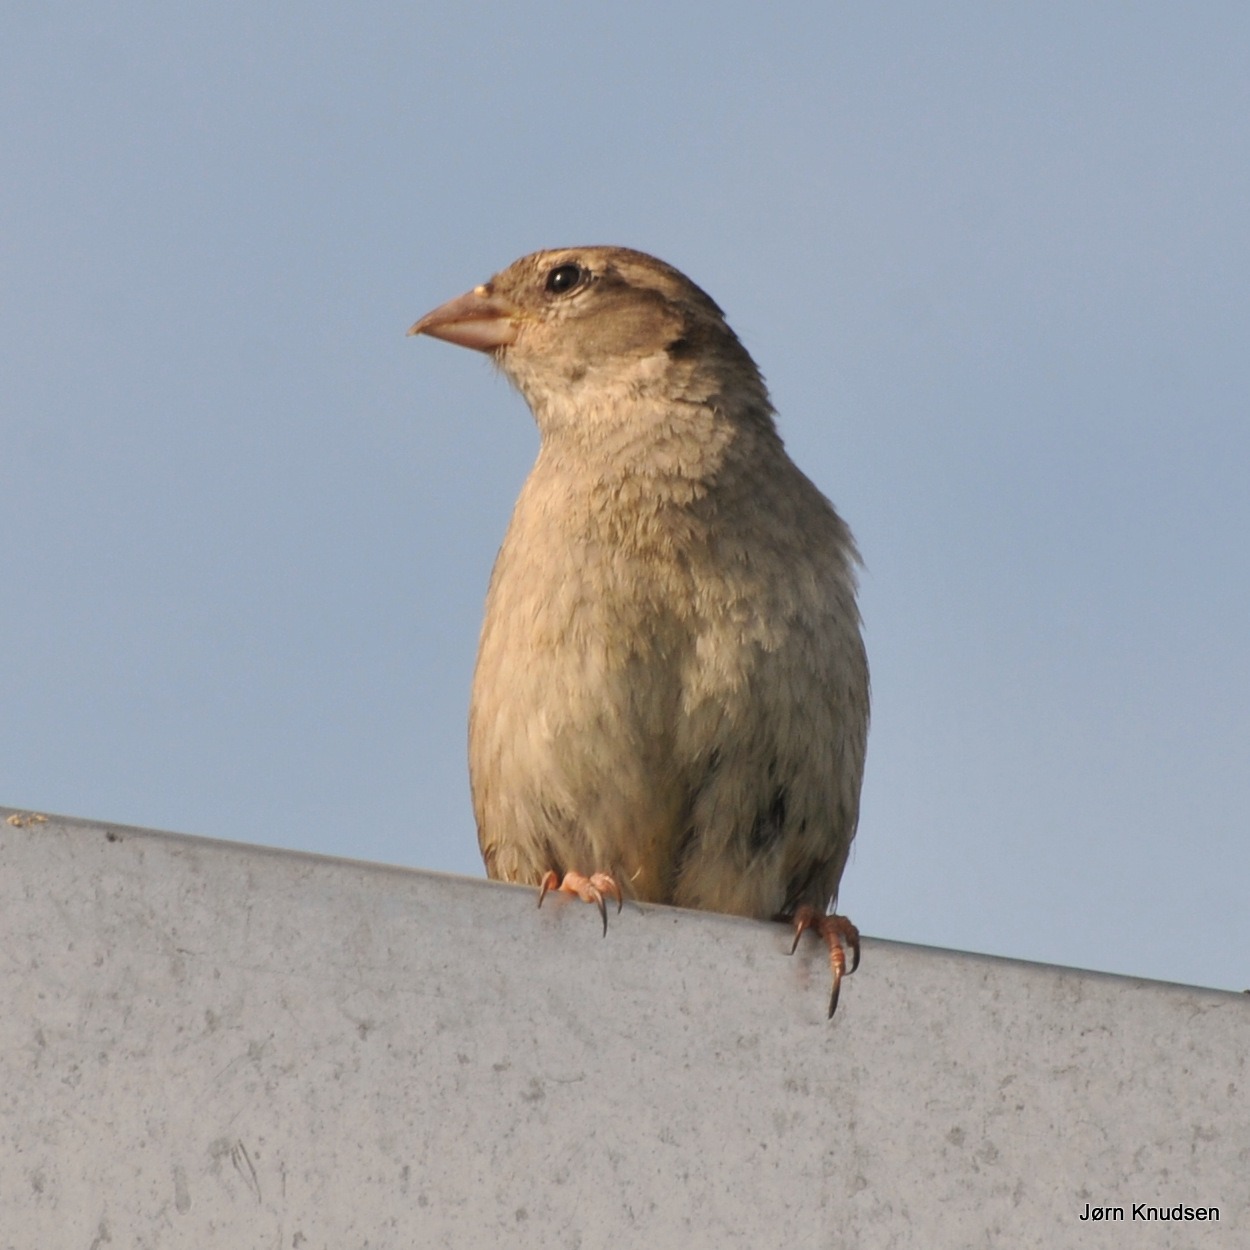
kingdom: Animalia
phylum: Chordata
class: Aves
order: Passeriformes
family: Passeridae
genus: Passer
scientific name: Passer domesticus
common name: Gråspurv
